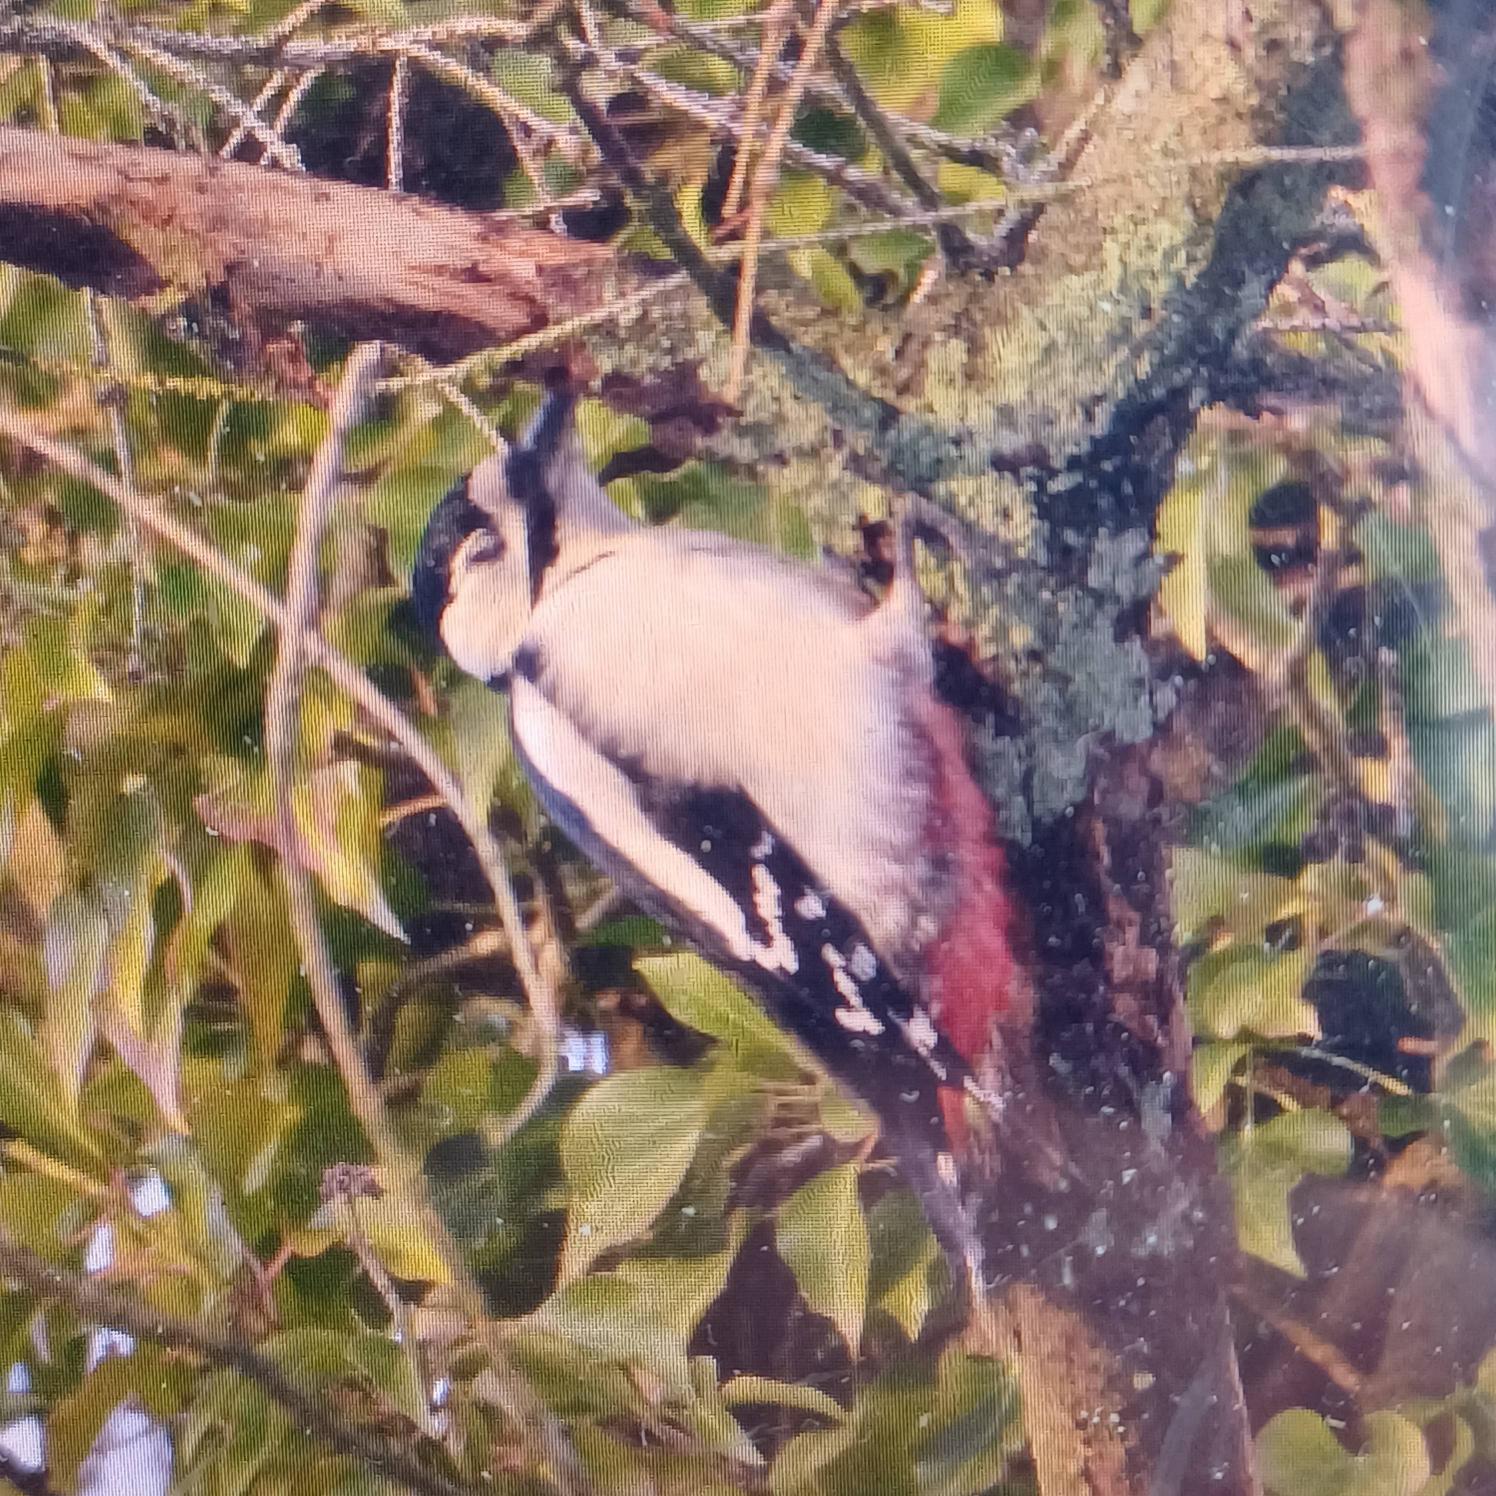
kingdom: Animalia
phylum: Chordata
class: Aves
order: Piciformes
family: Picidae
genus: Dendrocopos
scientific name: Dendrocopos major
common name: Stor flagspætte
